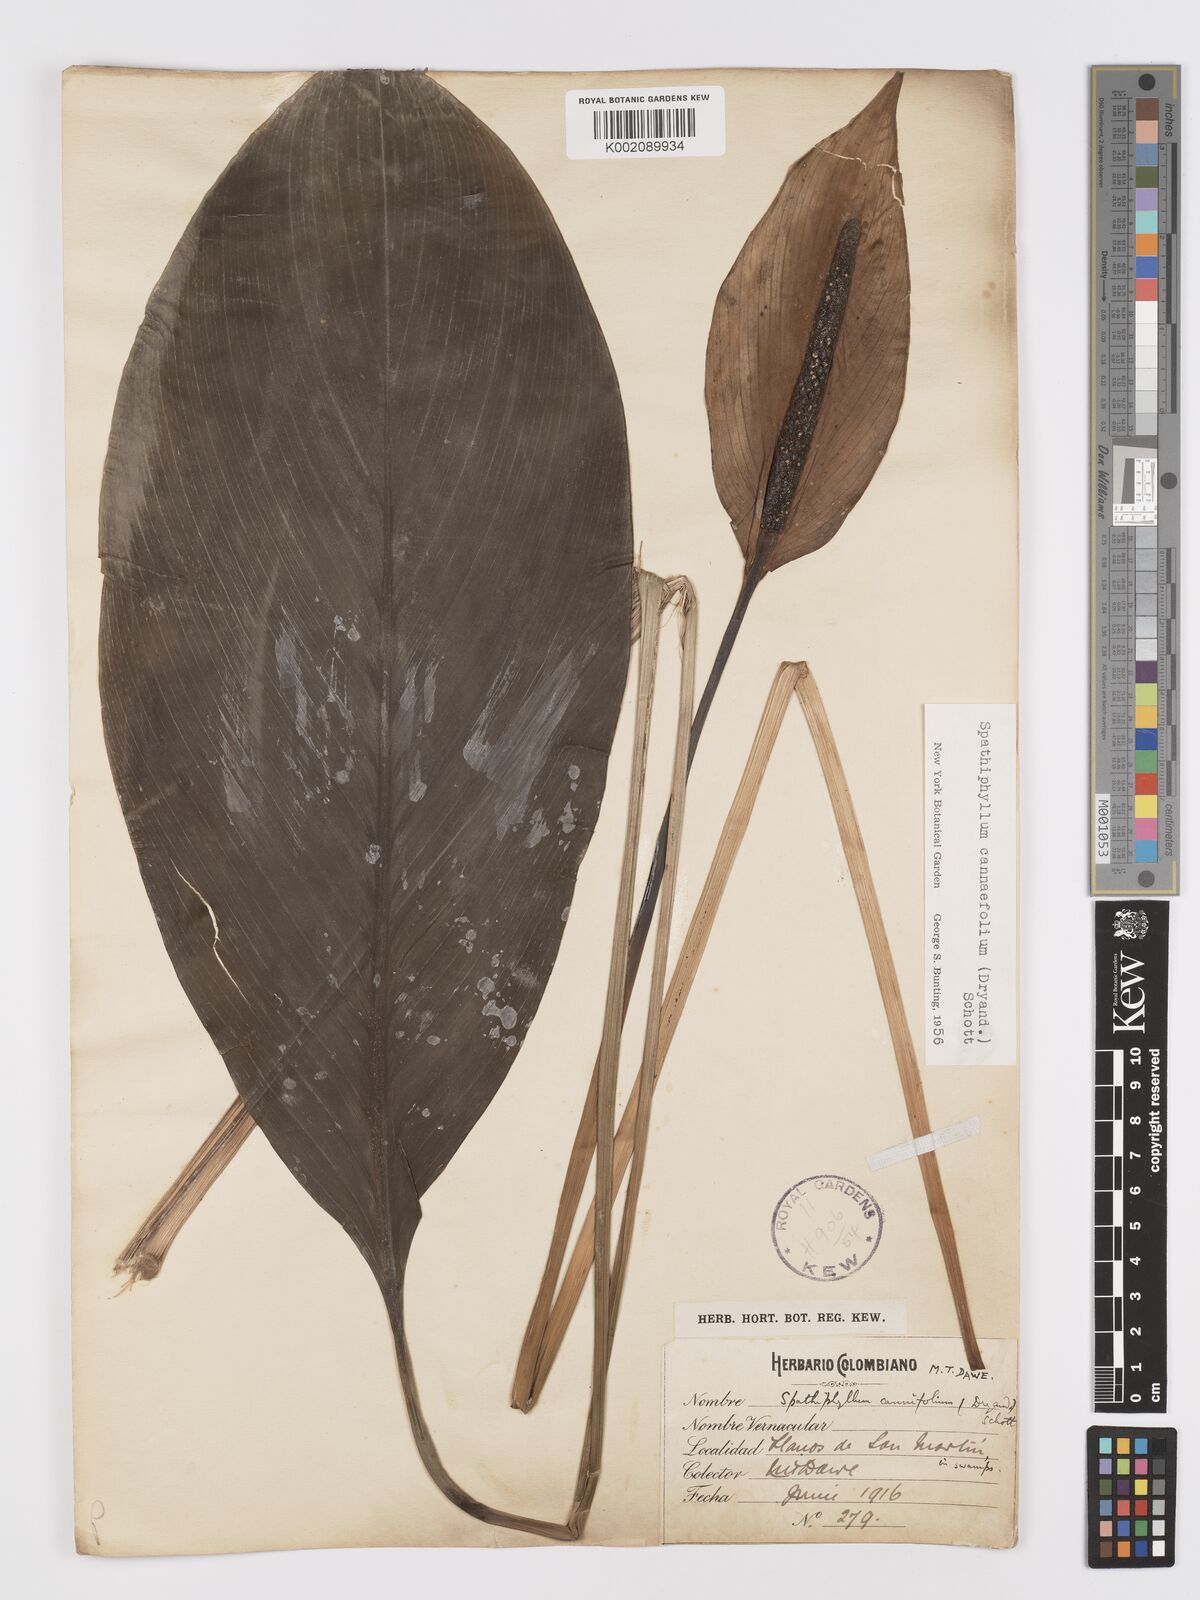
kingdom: Plantae
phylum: Tracheophyta
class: Liliopsida
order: Alismatales
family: Araceae
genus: Spathiphyllum
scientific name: Spathiphyllum cannifolium
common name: Spatheflower
